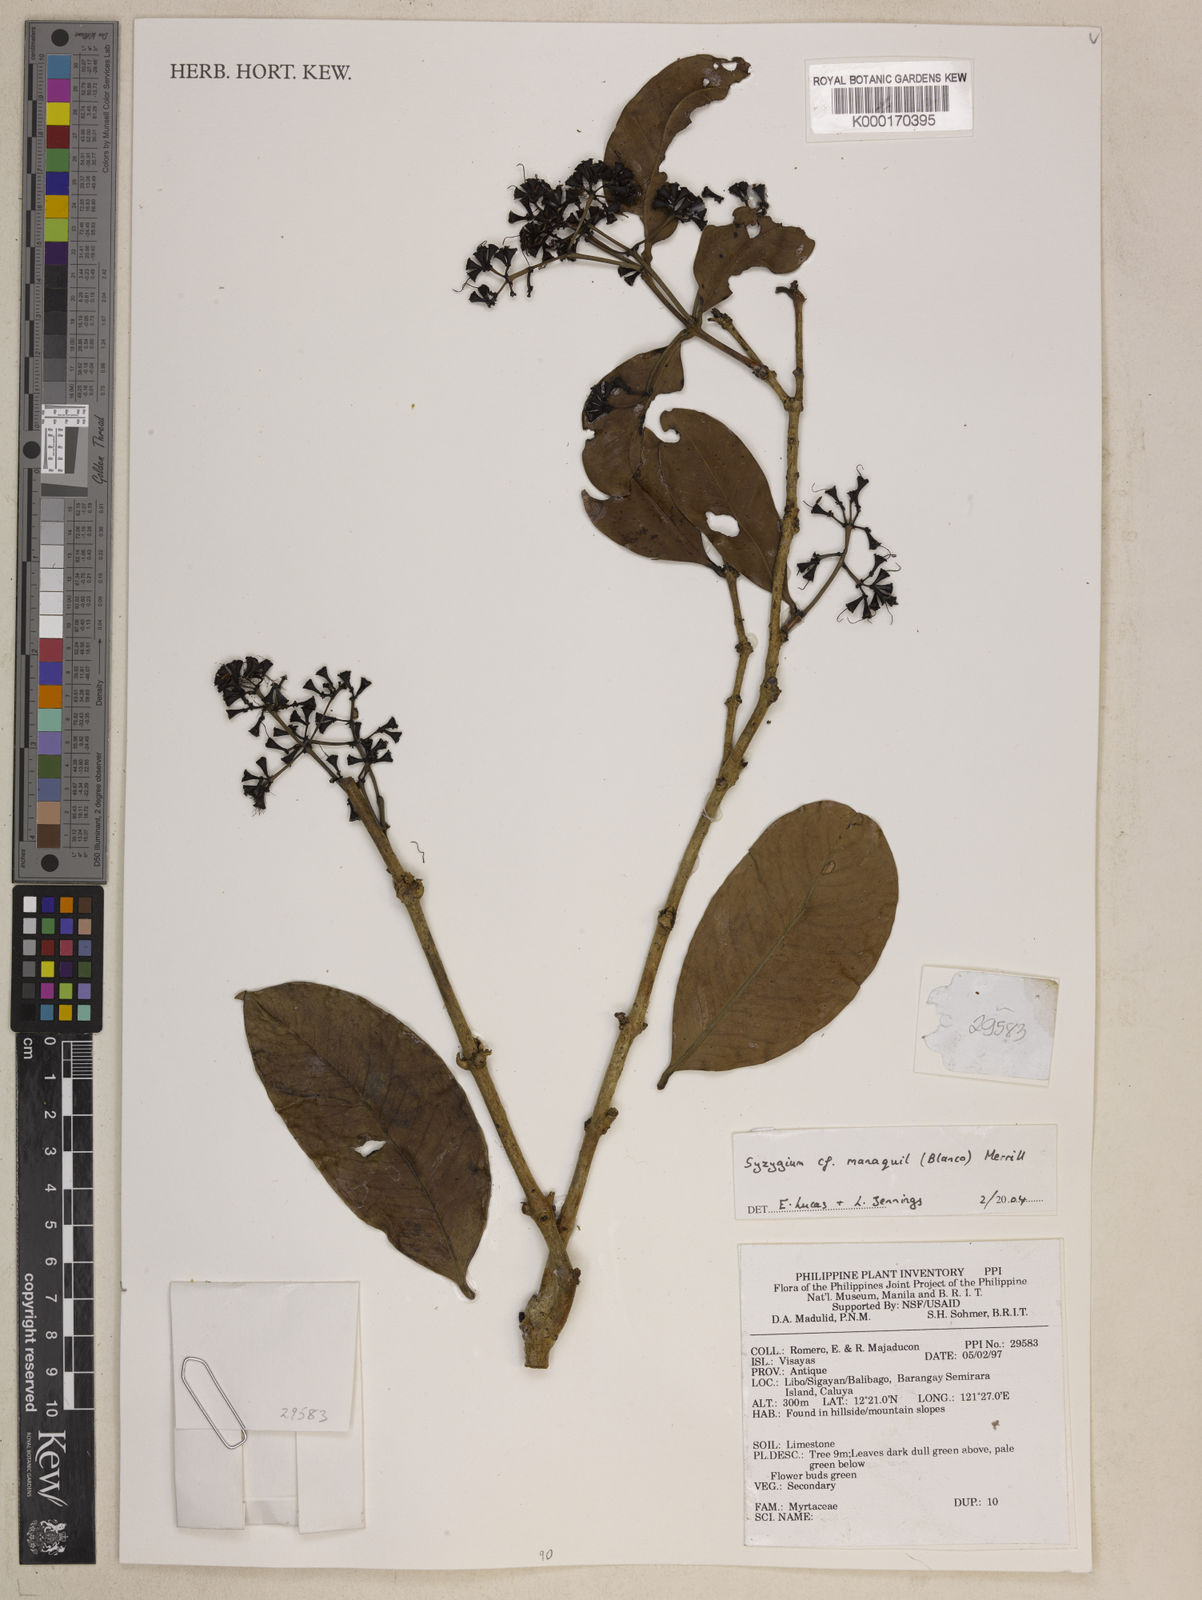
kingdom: Plantae
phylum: Tracheophyta
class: Magnoliopsida
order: Myrtales
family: Myrtaceae
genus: Syzygium
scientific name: Syzygium
